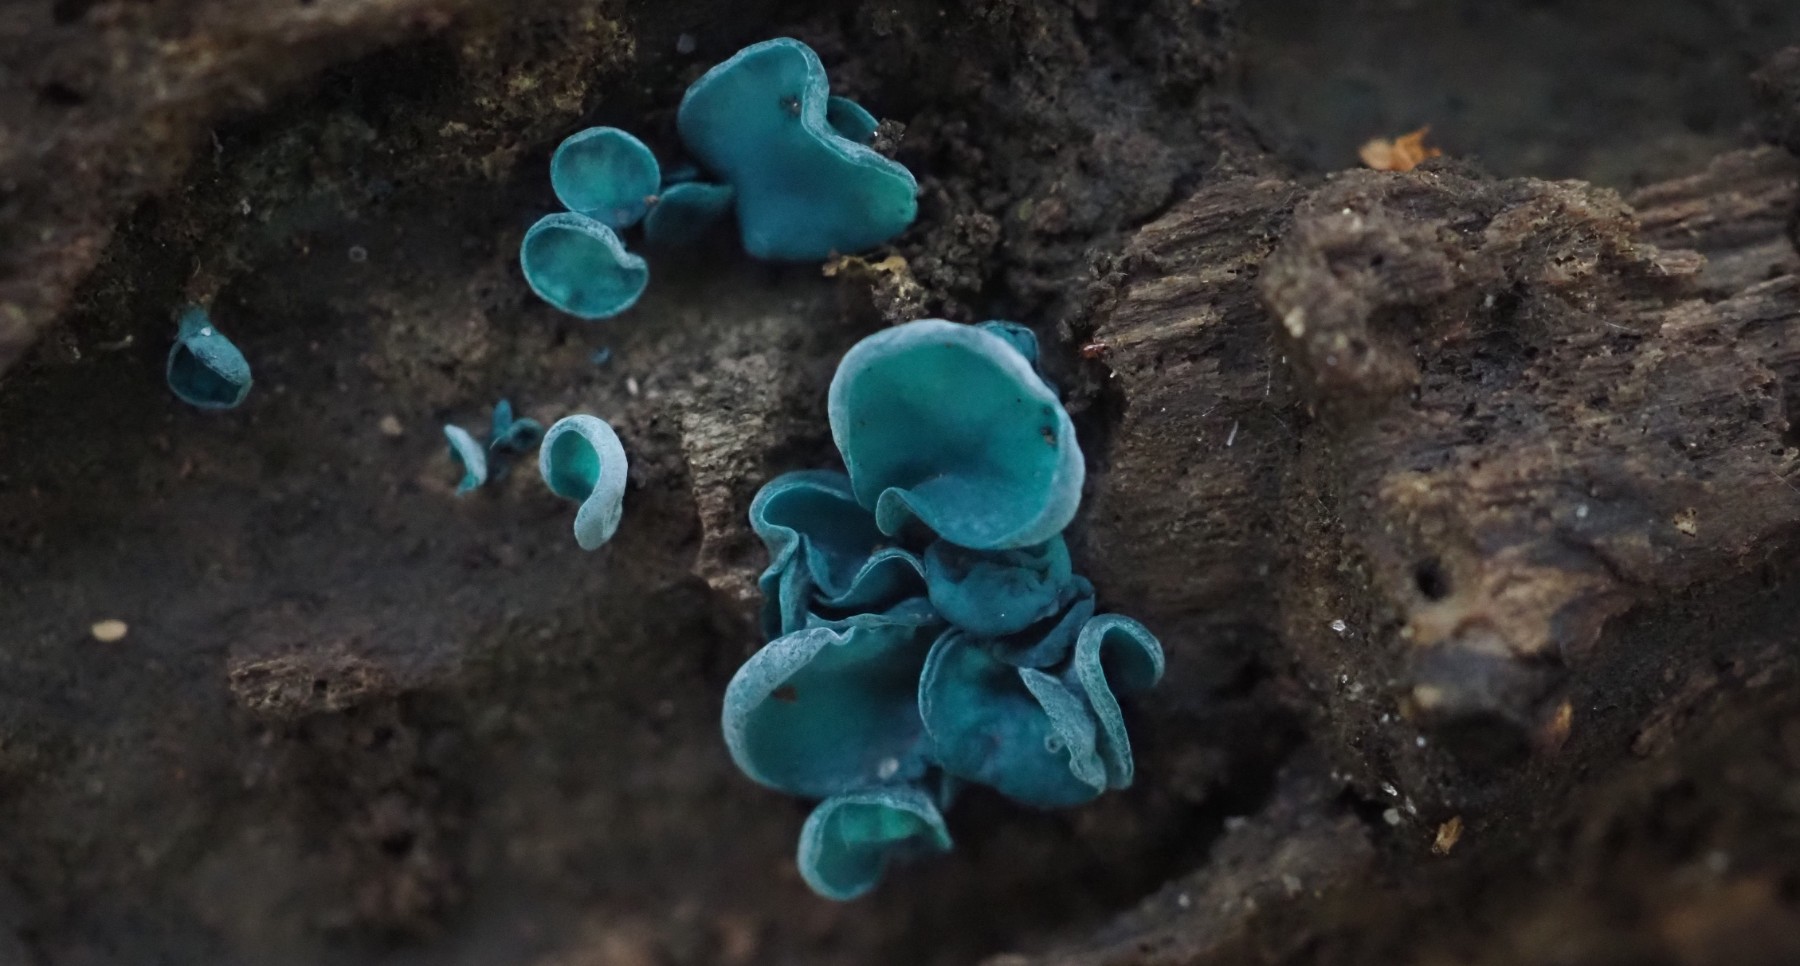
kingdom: Fungi
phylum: Ascomycota
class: Leotiomycetes
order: Helotiales
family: Chlorociboriaceae
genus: Chlorociboria
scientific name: Chlorociboria aeruginascens
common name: almindelig grønskive
